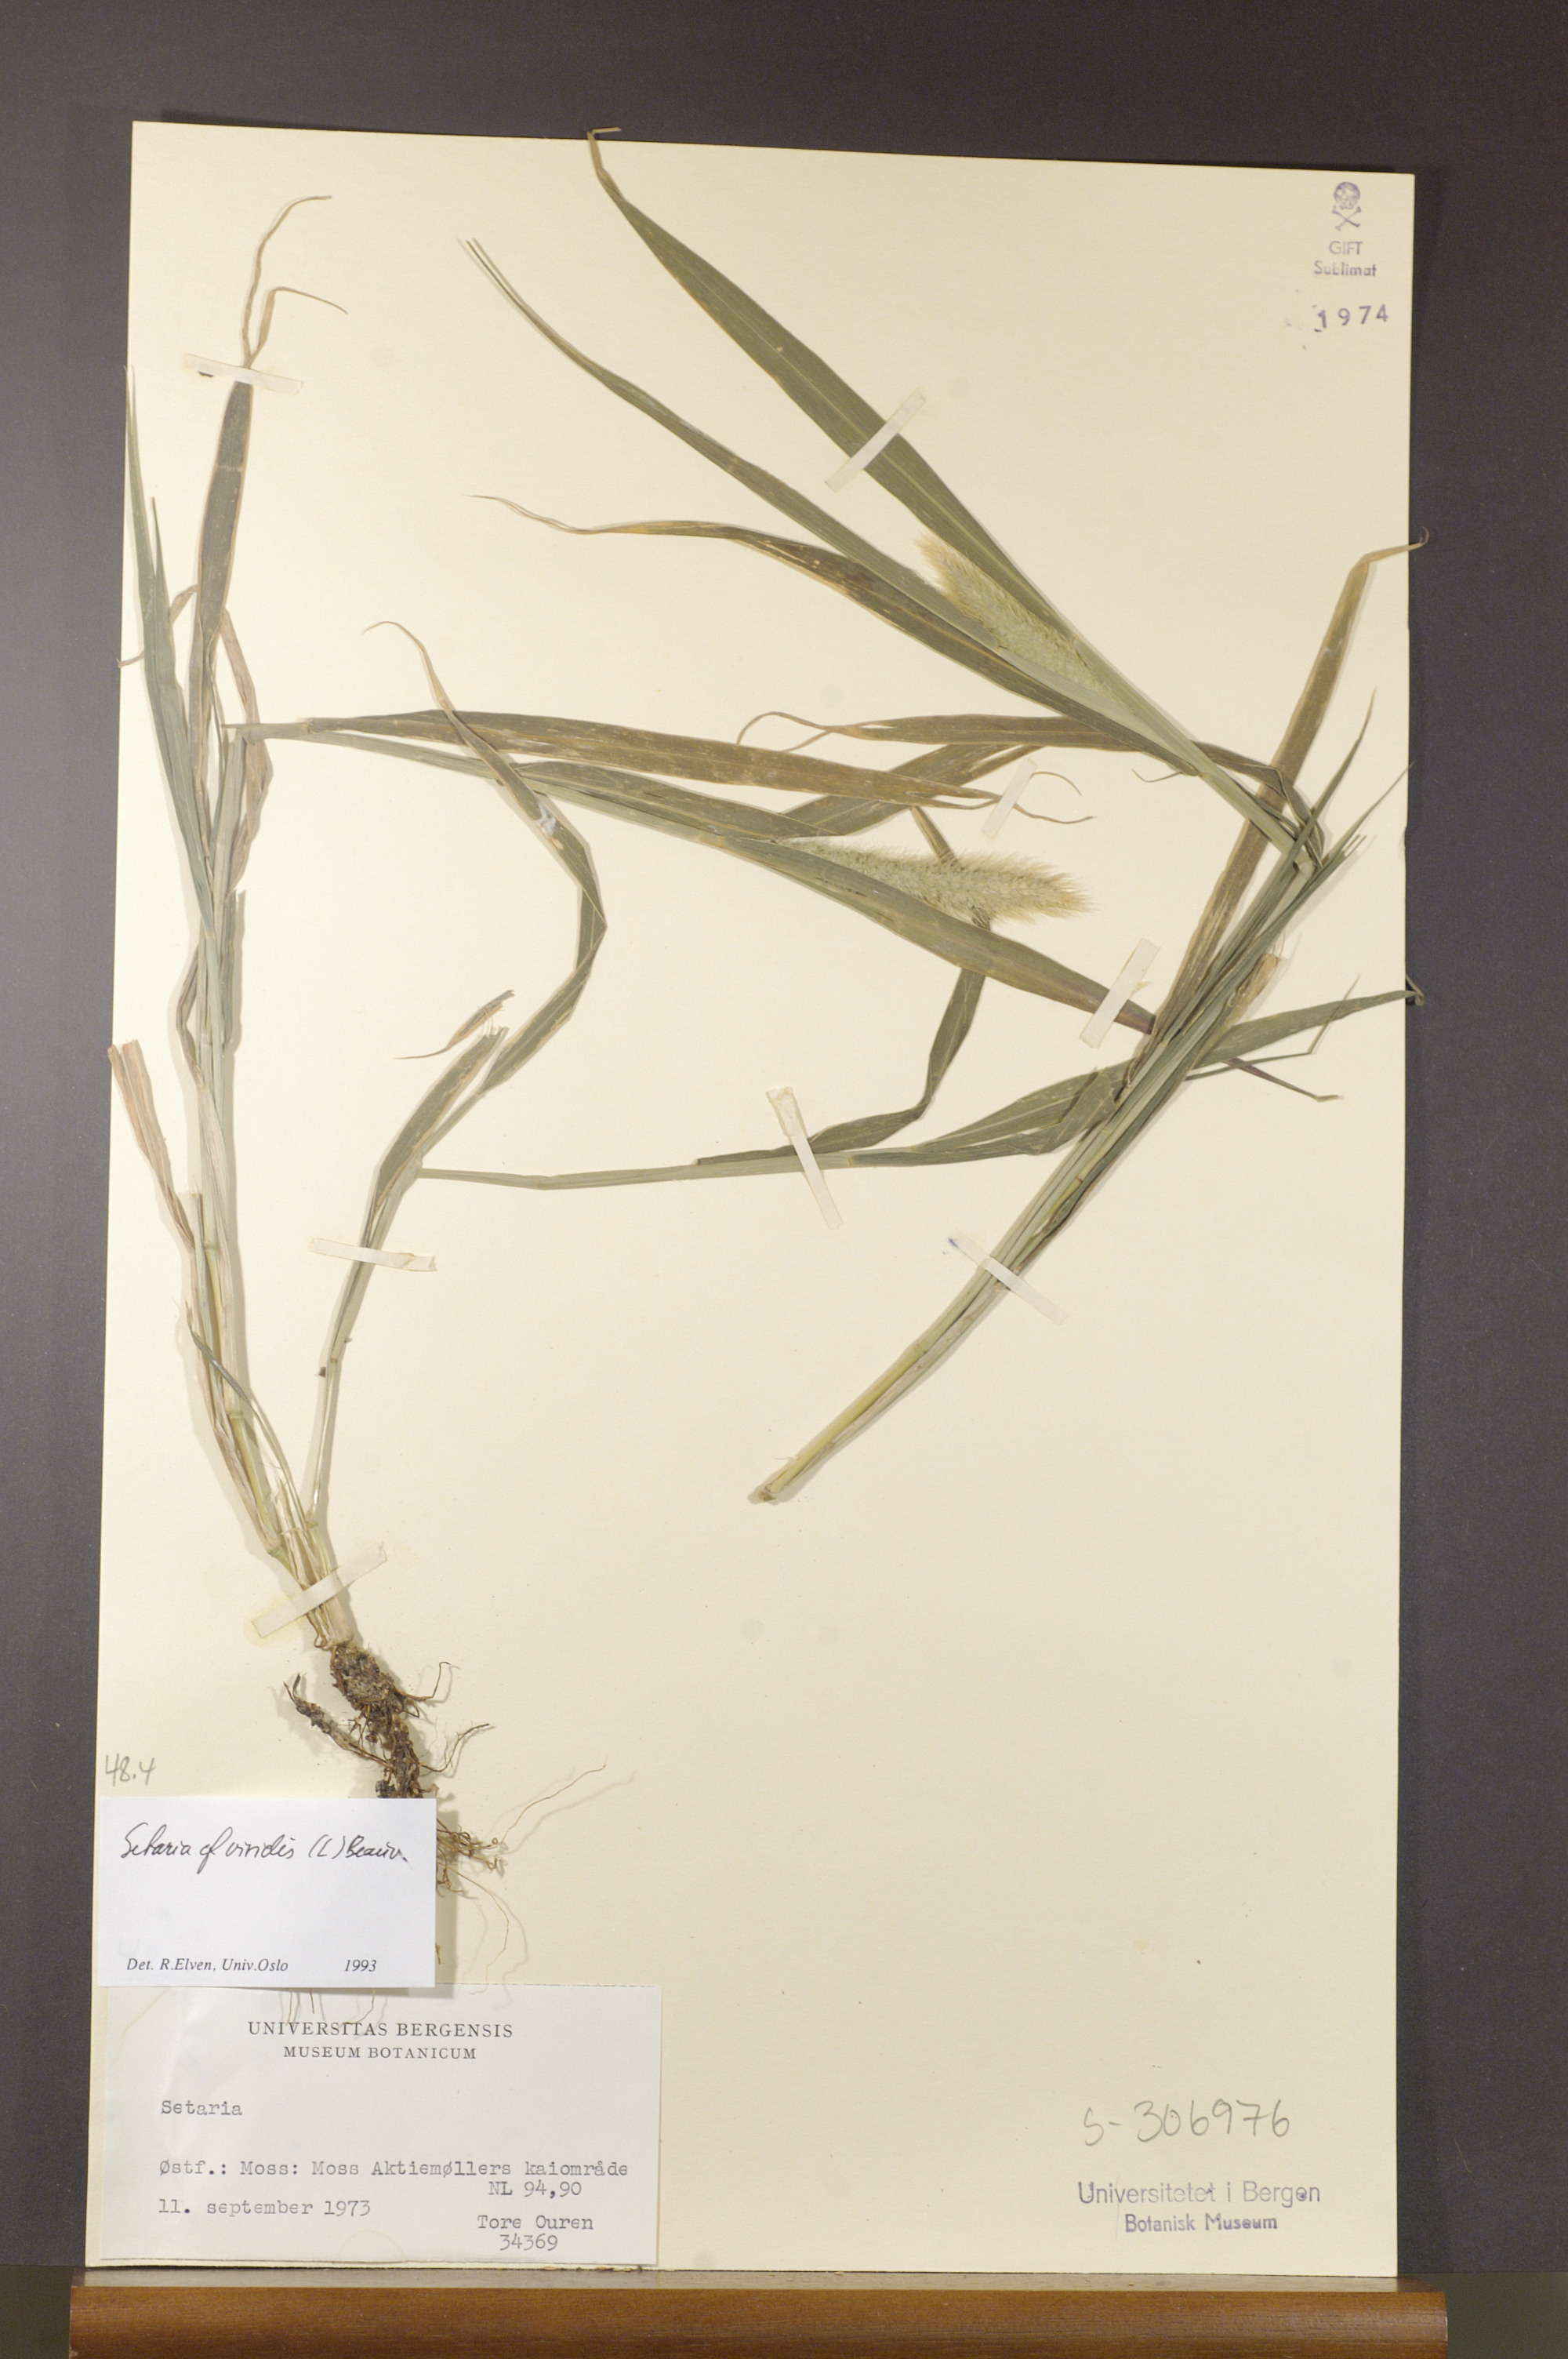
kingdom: Plantae
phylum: Tracheophyta
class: Liliopsida
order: Poales
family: Poaceae
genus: Setaria
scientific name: Setaria viridis
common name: Green bristlegrass
